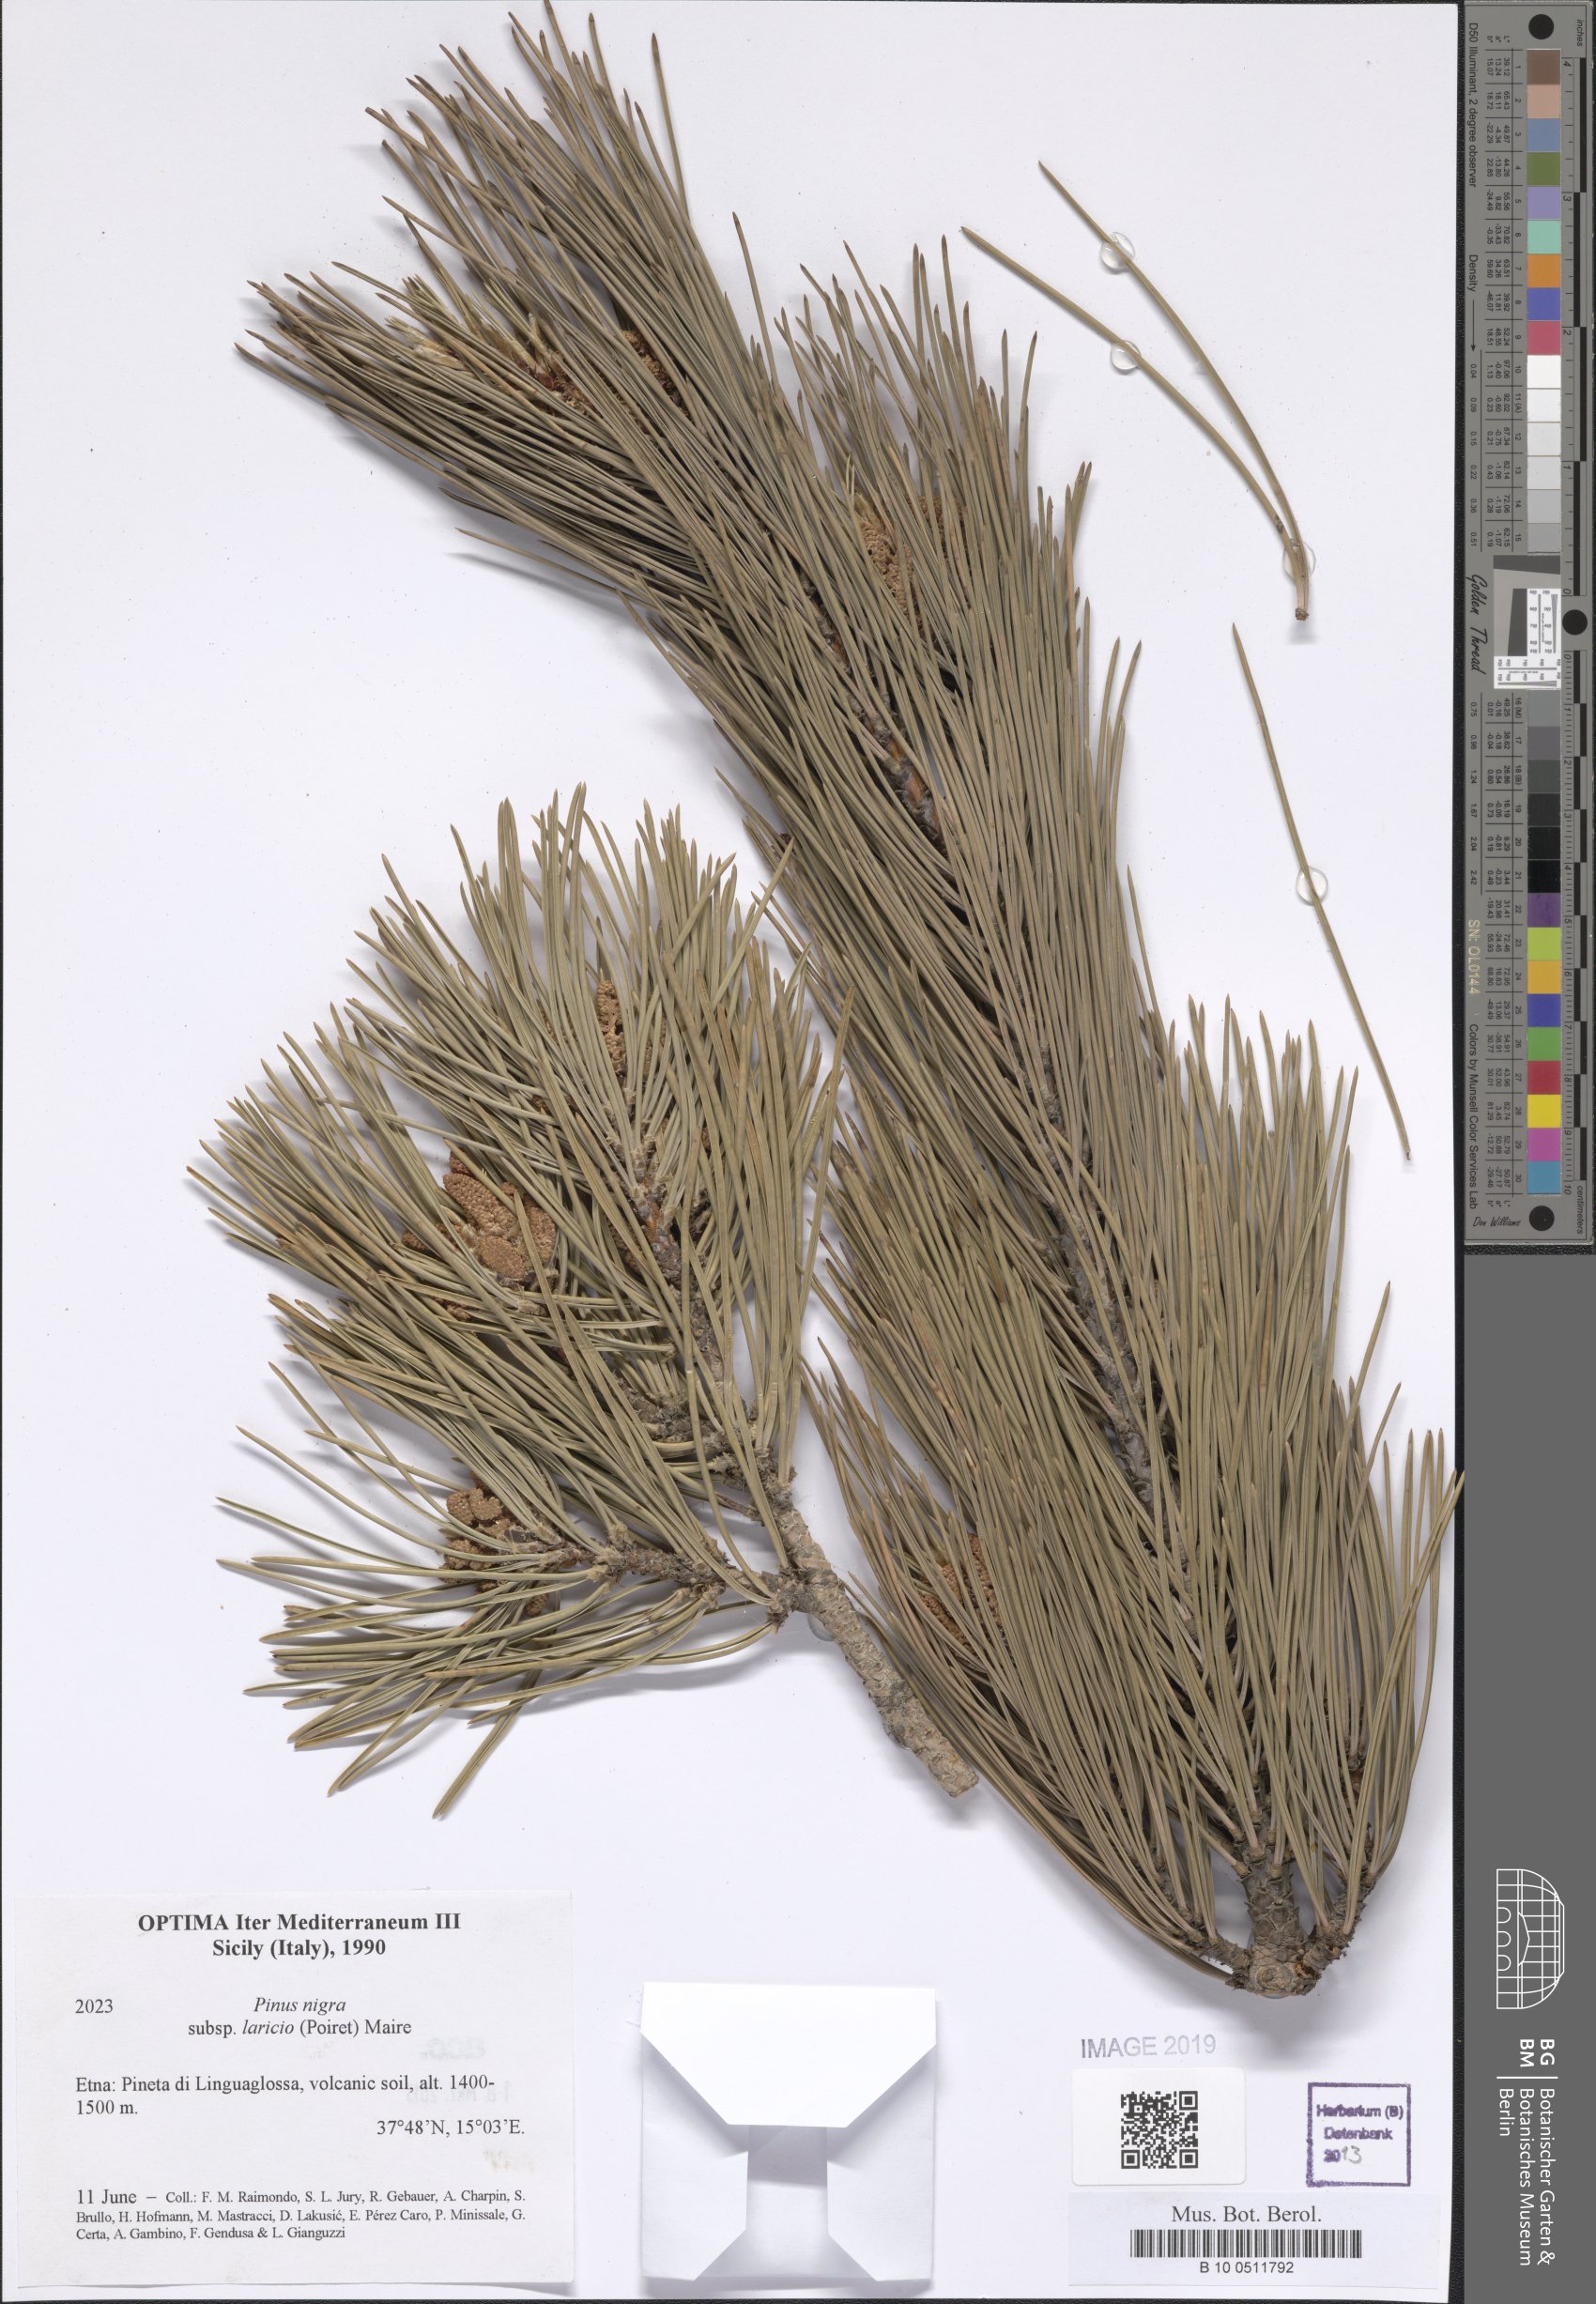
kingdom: Plantae
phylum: Tracheophyta
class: Pinopsida
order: Pinales
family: Pinaceae
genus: Pinus
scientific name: Pinus nigra
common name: Austrian pine
